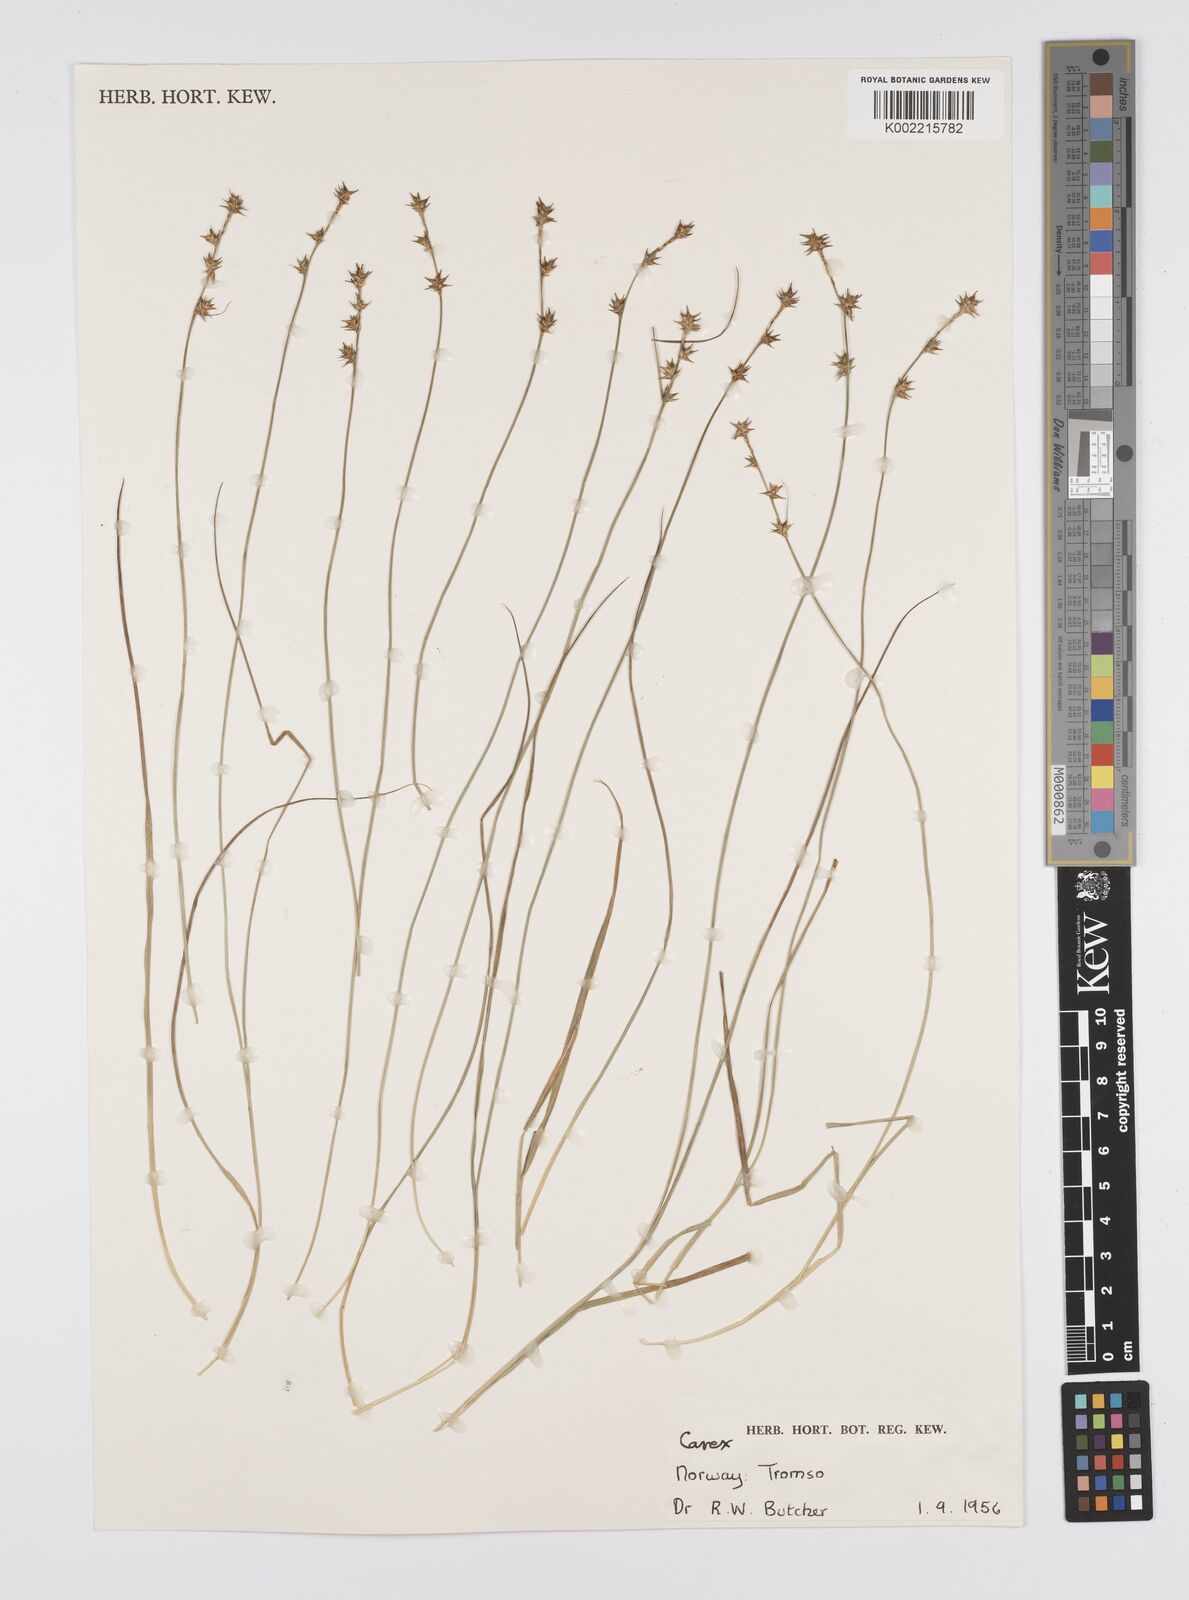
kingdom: Plantae
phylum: Tracheophyta
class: Liliopsida
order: Poales
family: Cyperaceae
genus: Carex
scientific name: Carex
